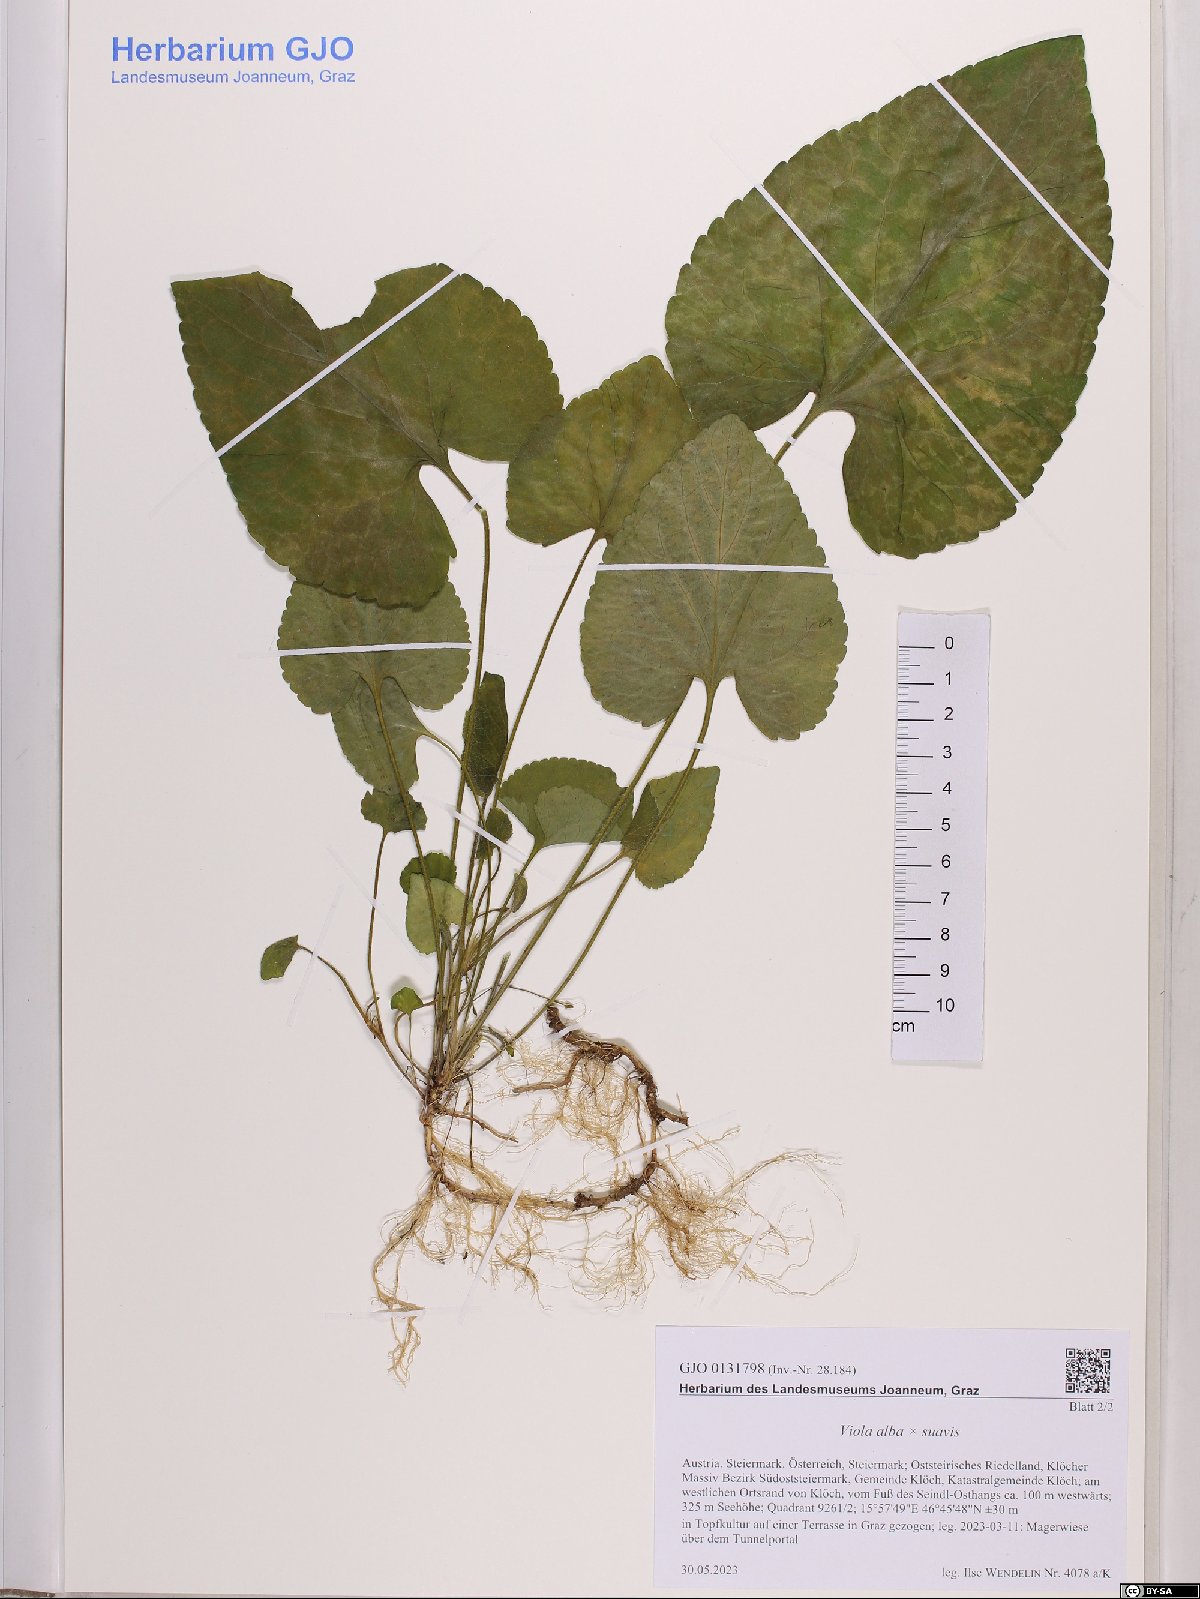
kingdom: Plantae
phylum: Tracheophyta
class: Magnoliopsida
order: Malpighiales
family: Violaceae
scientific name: Violaceae
